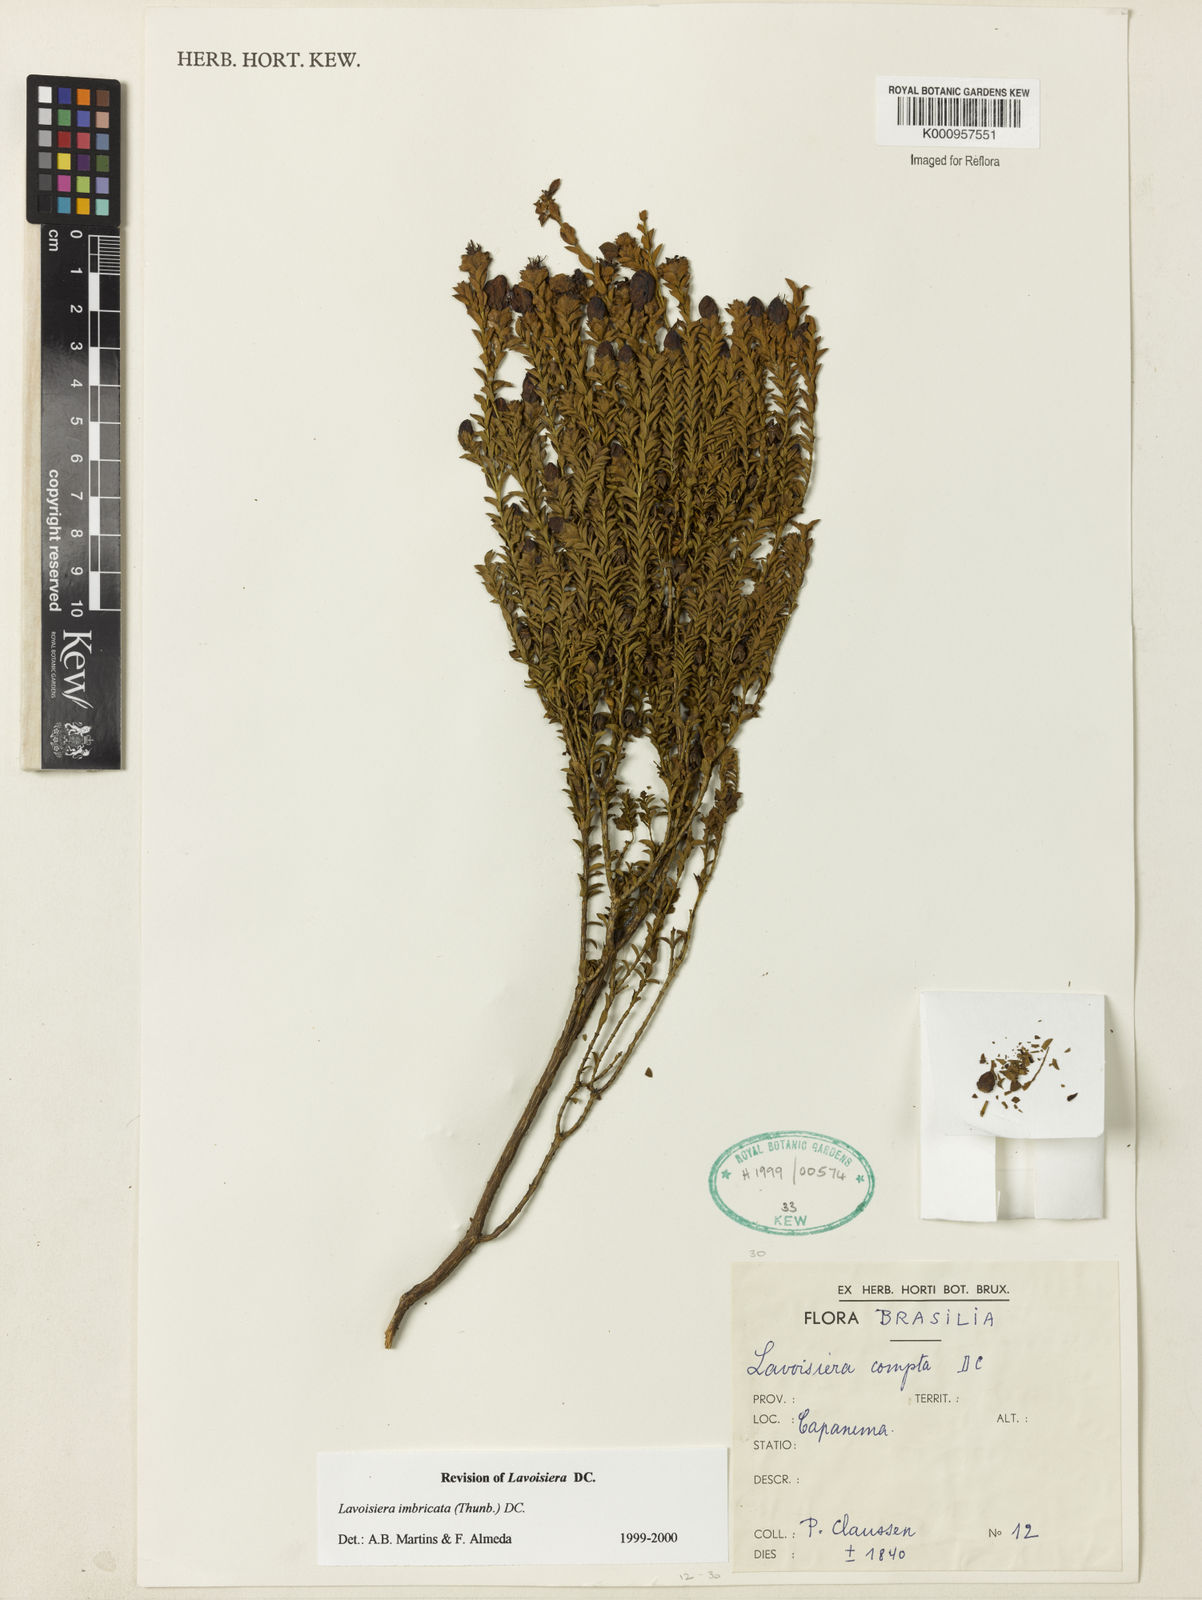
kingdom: Plantae
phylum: Tracheophyta
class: Magnoliopsida
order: Myrtales
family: Melastomataceae
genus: Microlicia
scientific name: Microlicia cataphracta
